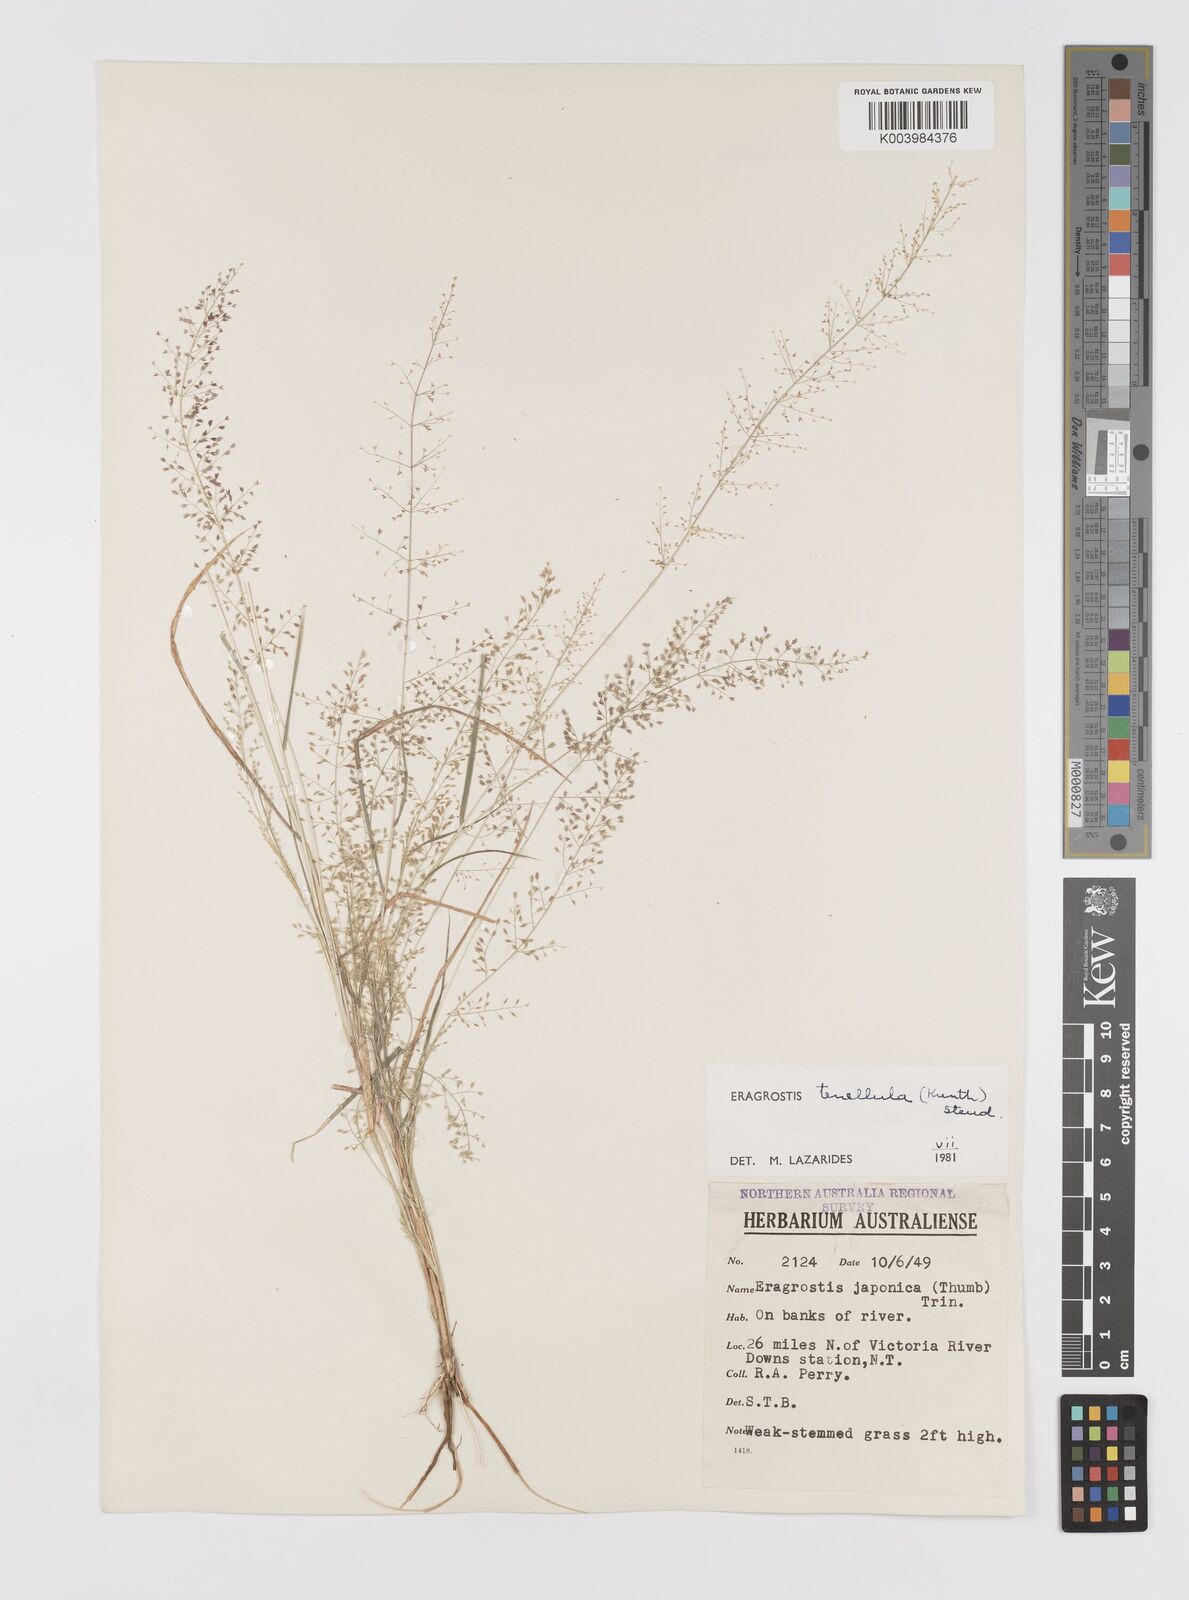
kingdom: Plantae
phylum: Tracheophyta
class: Liliopsida
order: Poales
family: Poaceae
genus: Eragrostis
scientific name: Eragrostis tenellula
